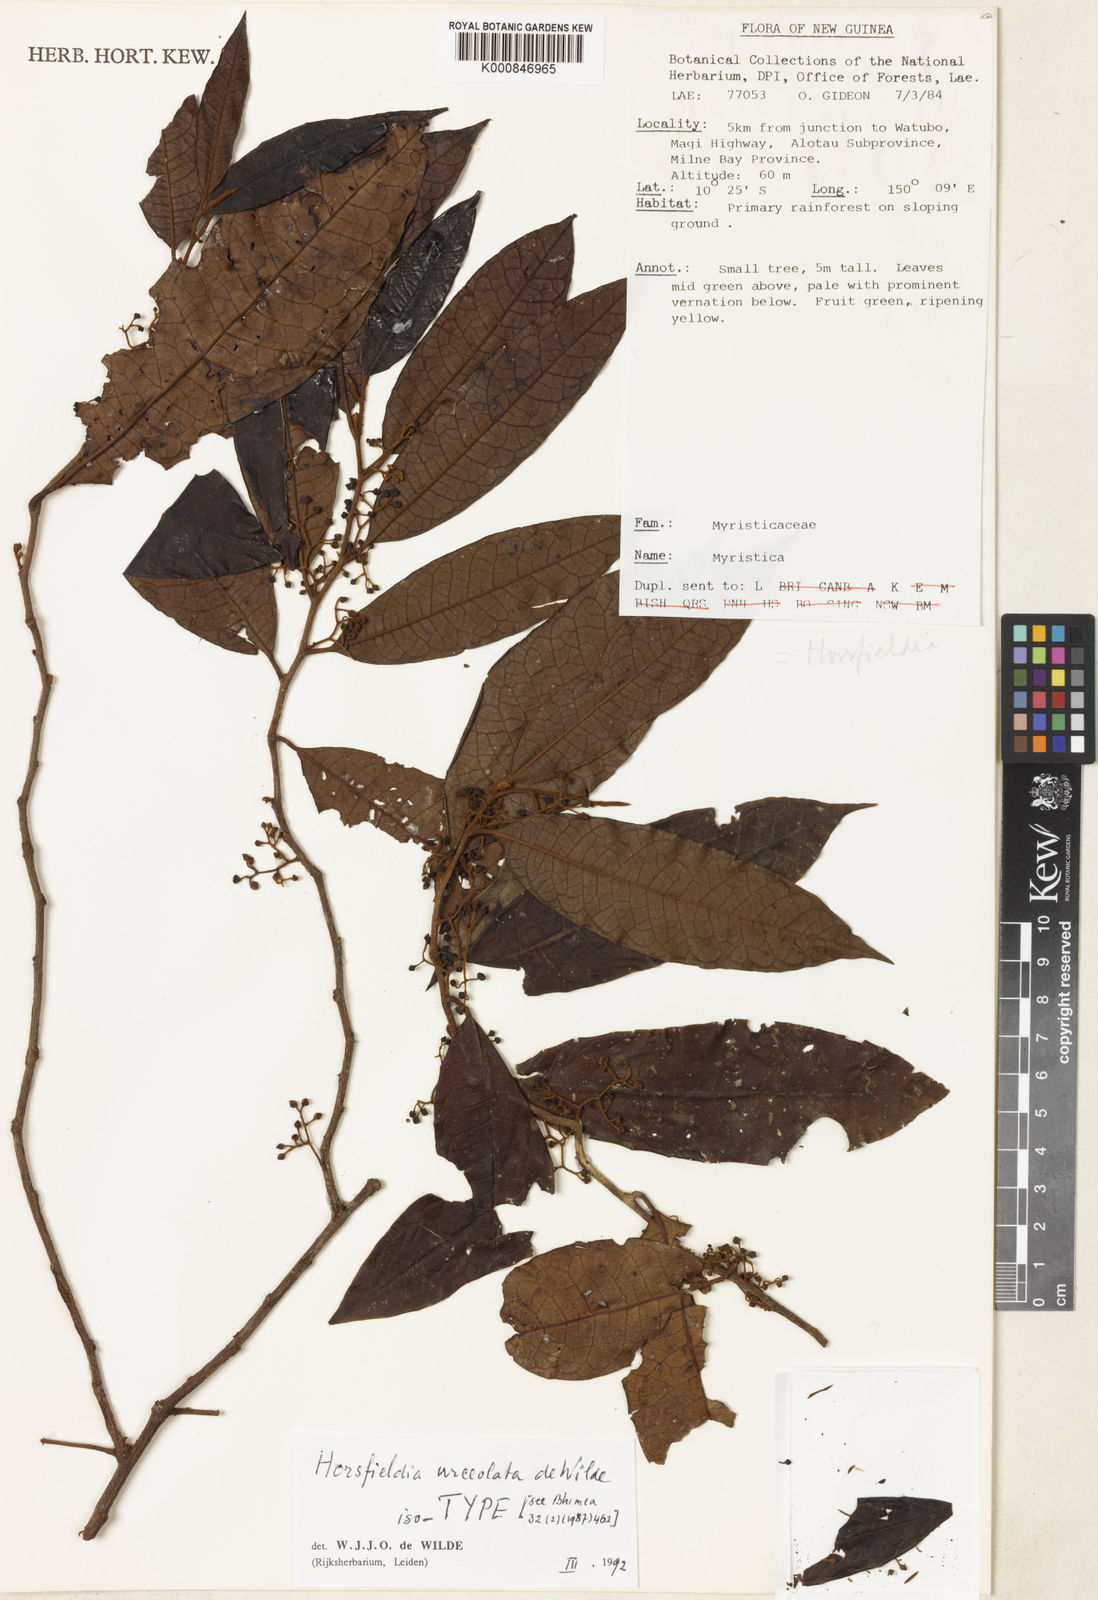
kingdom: Plantae
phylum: Tracheophyta
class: Magnoliopsida
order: Magnoliales
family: Myristicaceae
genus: Horsfieldia
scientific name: Horsfieldia urceolata
